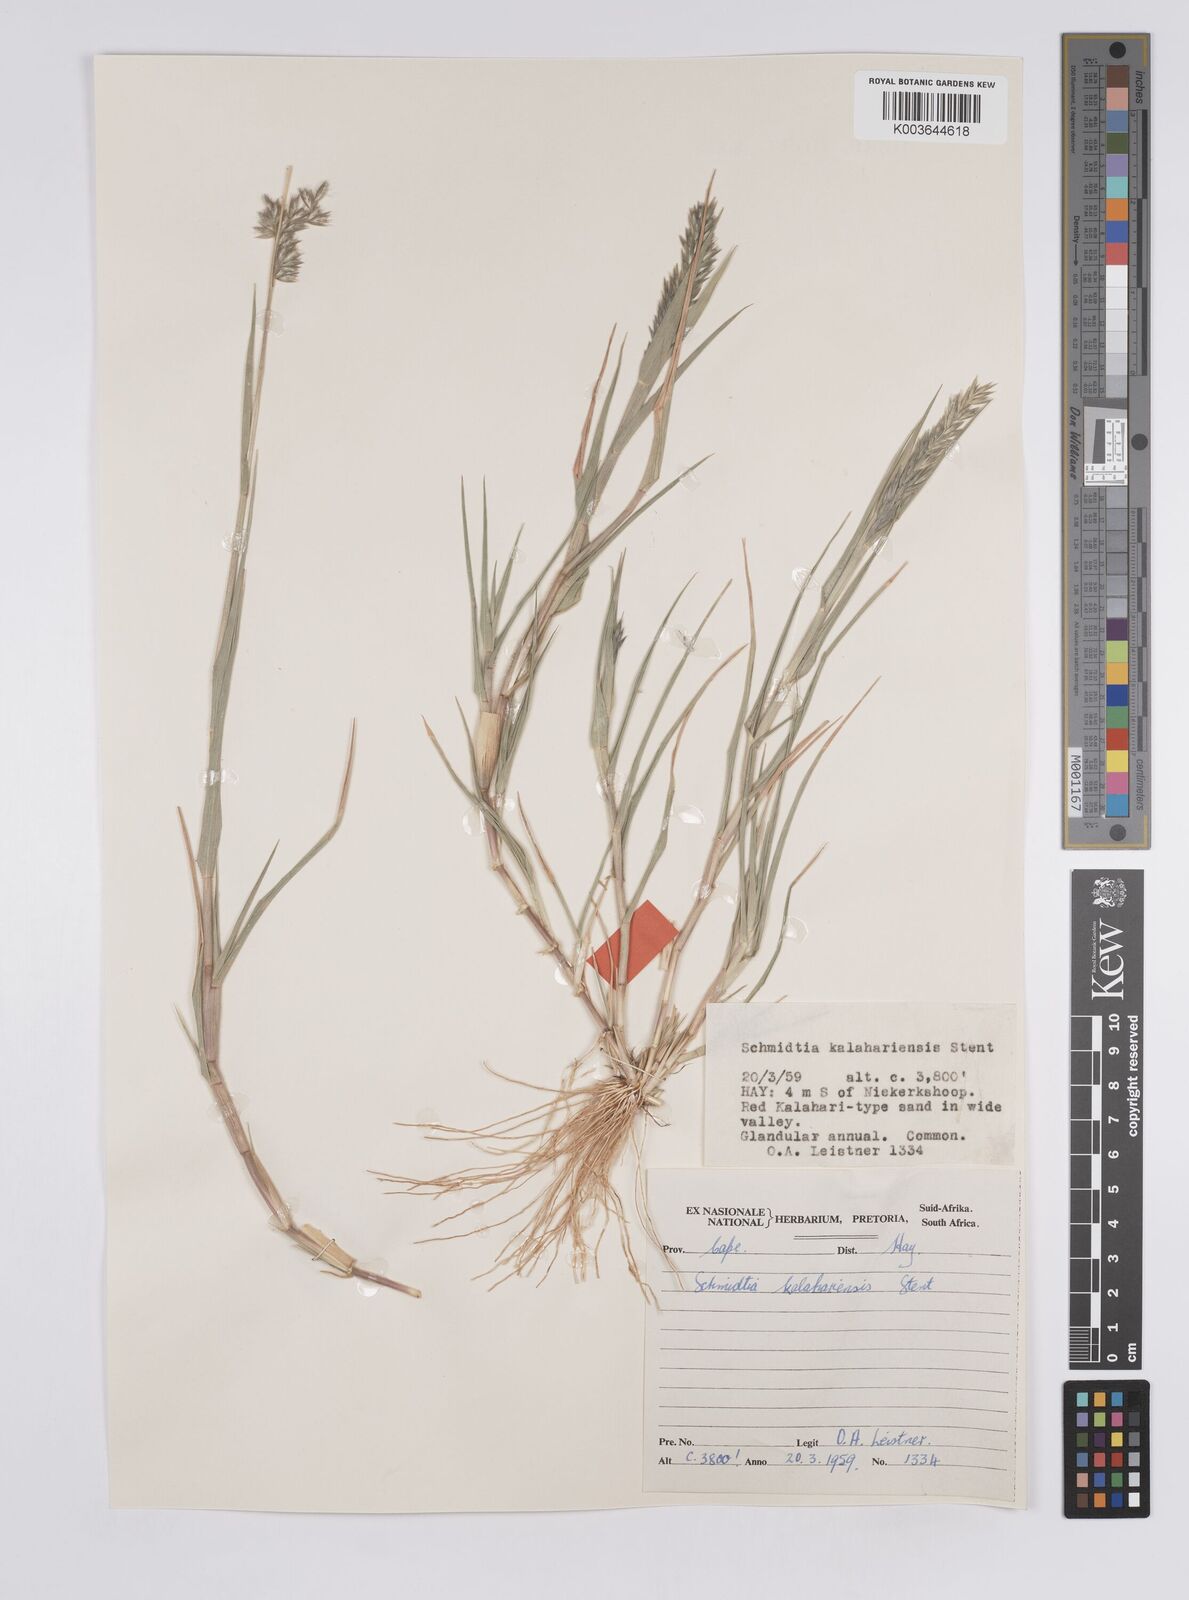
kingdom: Plantae
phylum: Tracheophyta
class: Liliopsida
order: Poales
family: Poaceae
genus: Schmidtia
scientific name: Schmidtia kalahariensis
